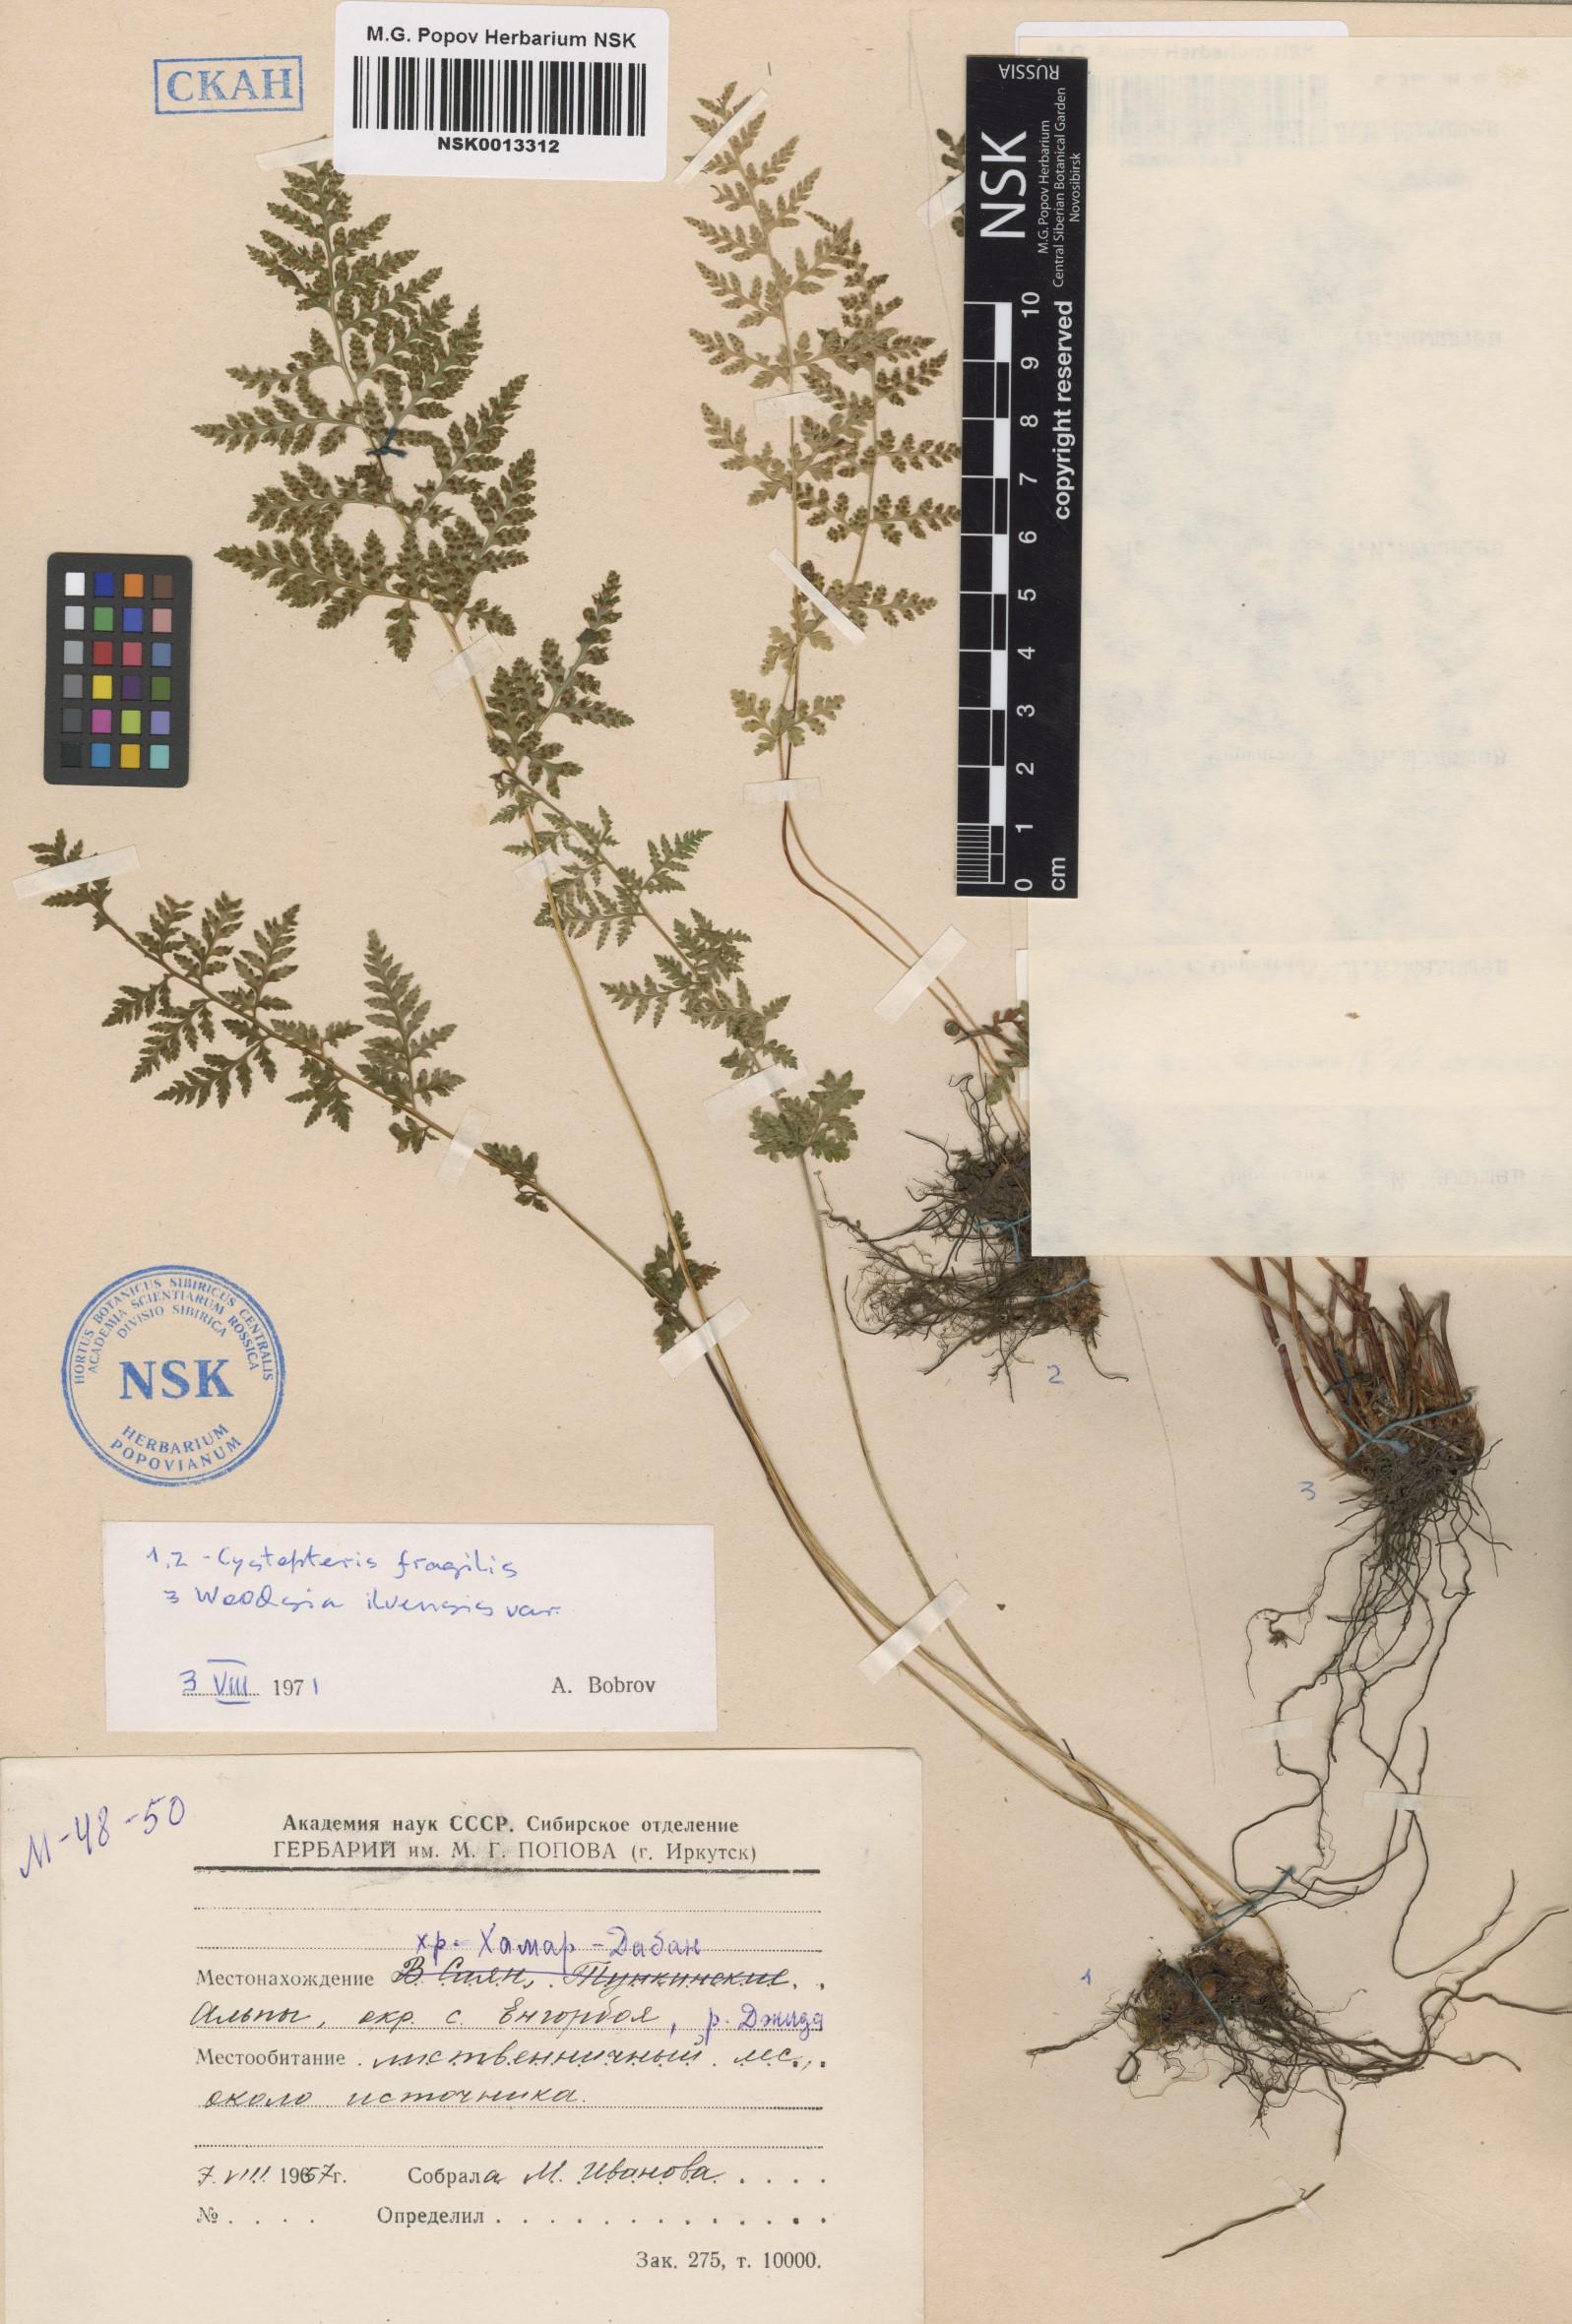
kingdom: Plantae
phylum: Tracheophyta
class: Polypodiopsida
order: Polypodiales
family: Cystopteridaceae
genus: Cystopteris
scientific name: Cystopteris fragilis
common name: Brittle bladder fern
